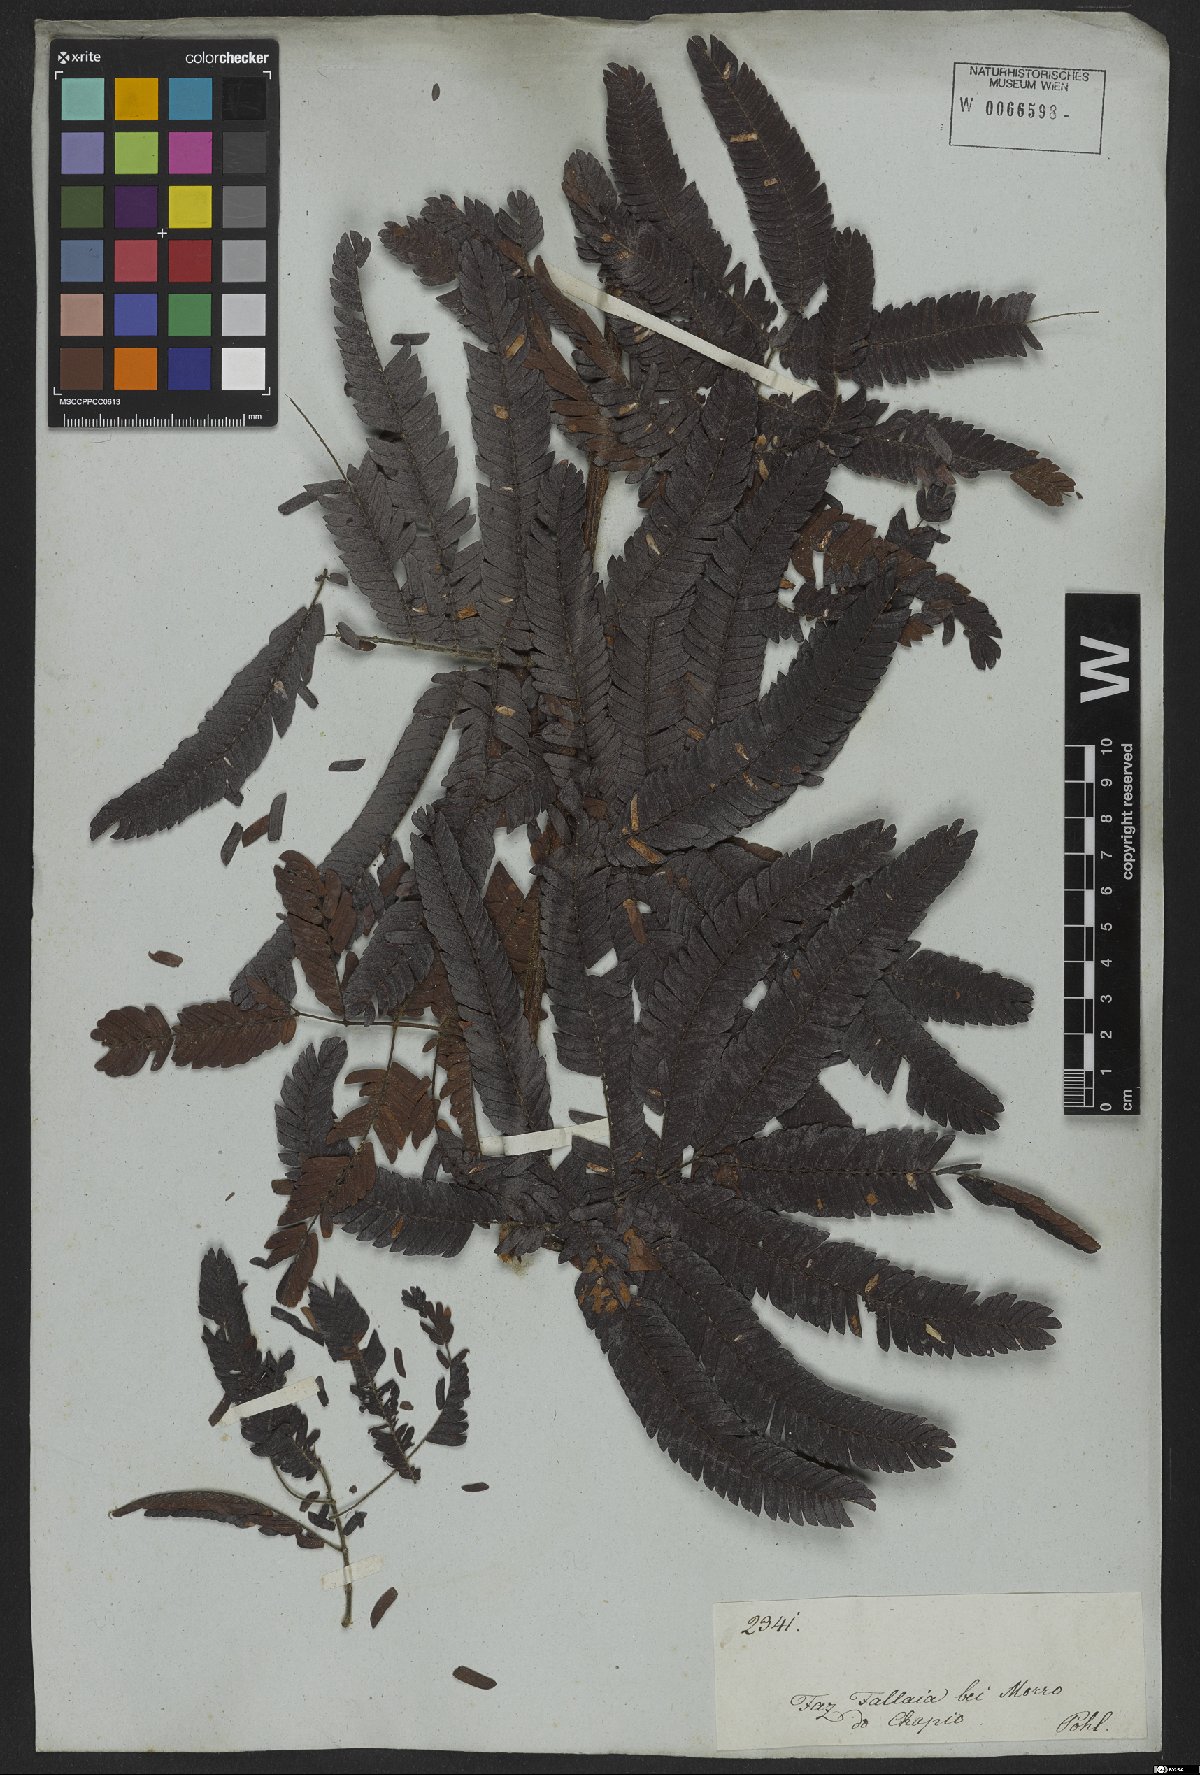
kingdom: Plantae
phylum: Tracheophyta
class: Magnoliopsida
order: Fabales
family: Fabaceae
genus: Calliandra
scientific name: Calliandra dysantha
